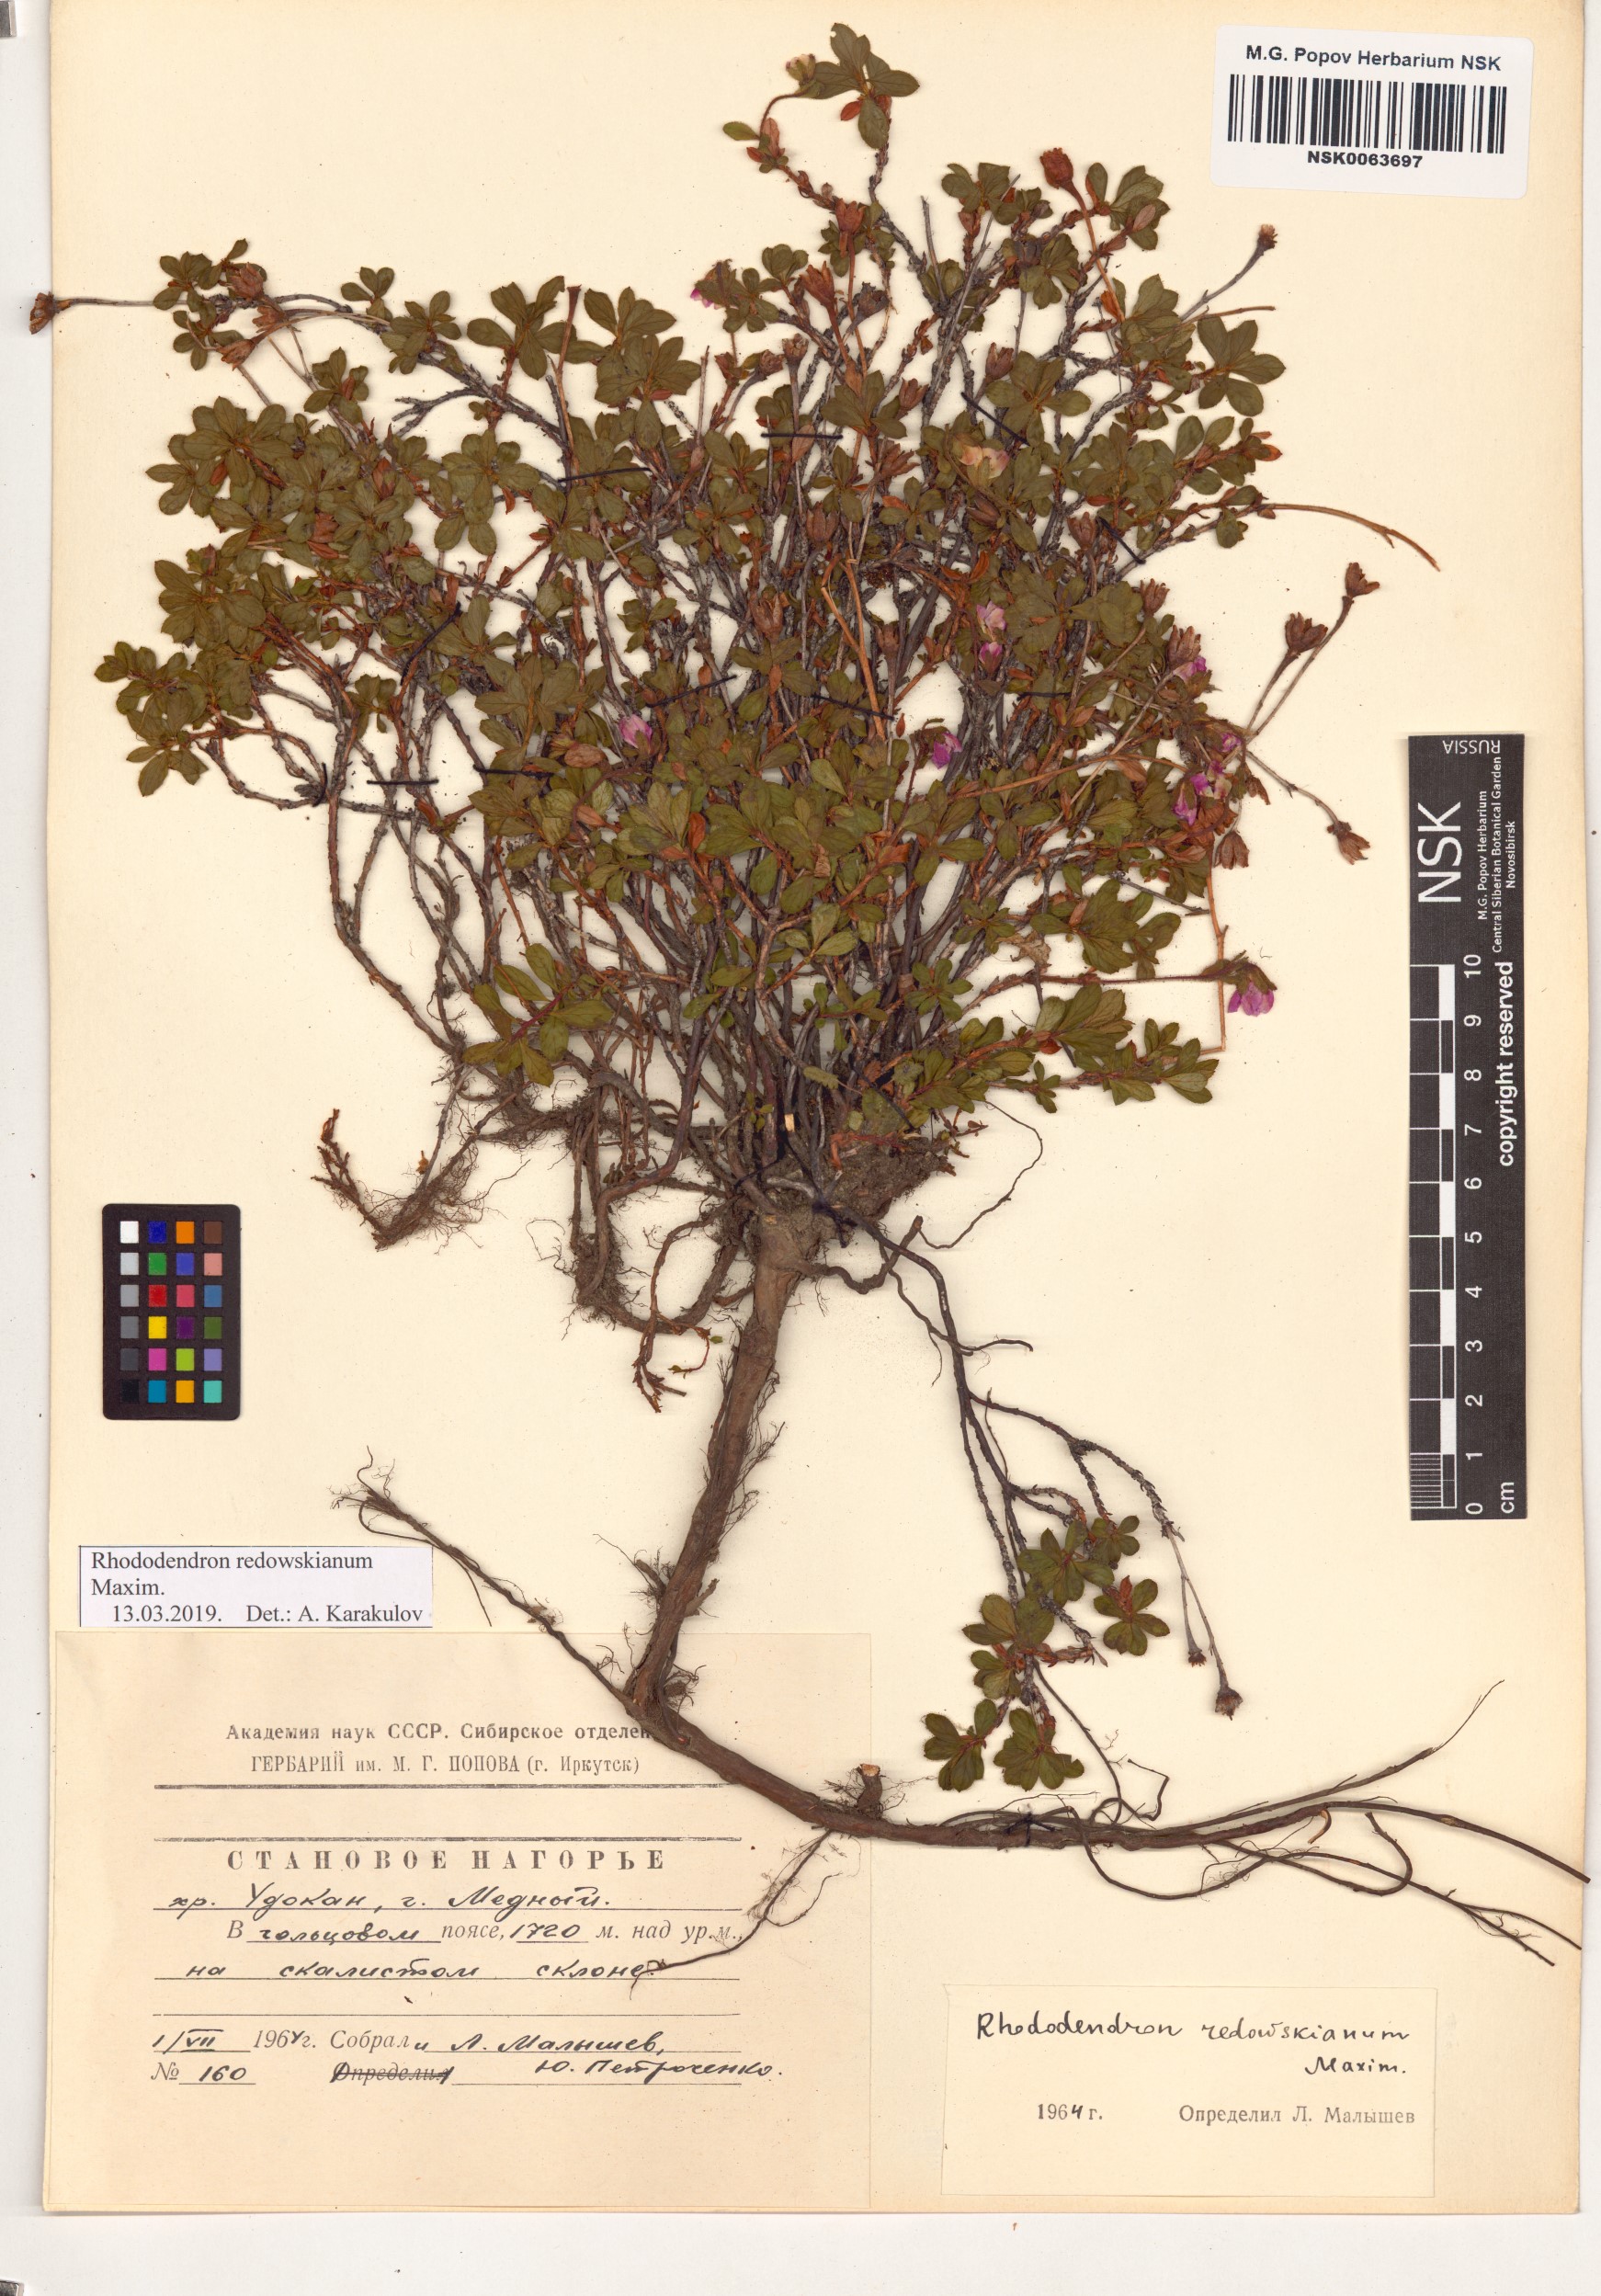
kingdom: Plantae
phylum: Tracheophyta
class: Magnoliopsida
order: Ericales
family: Ericaceae
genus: Rhododendron
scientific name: Rhododendron redowskianum
